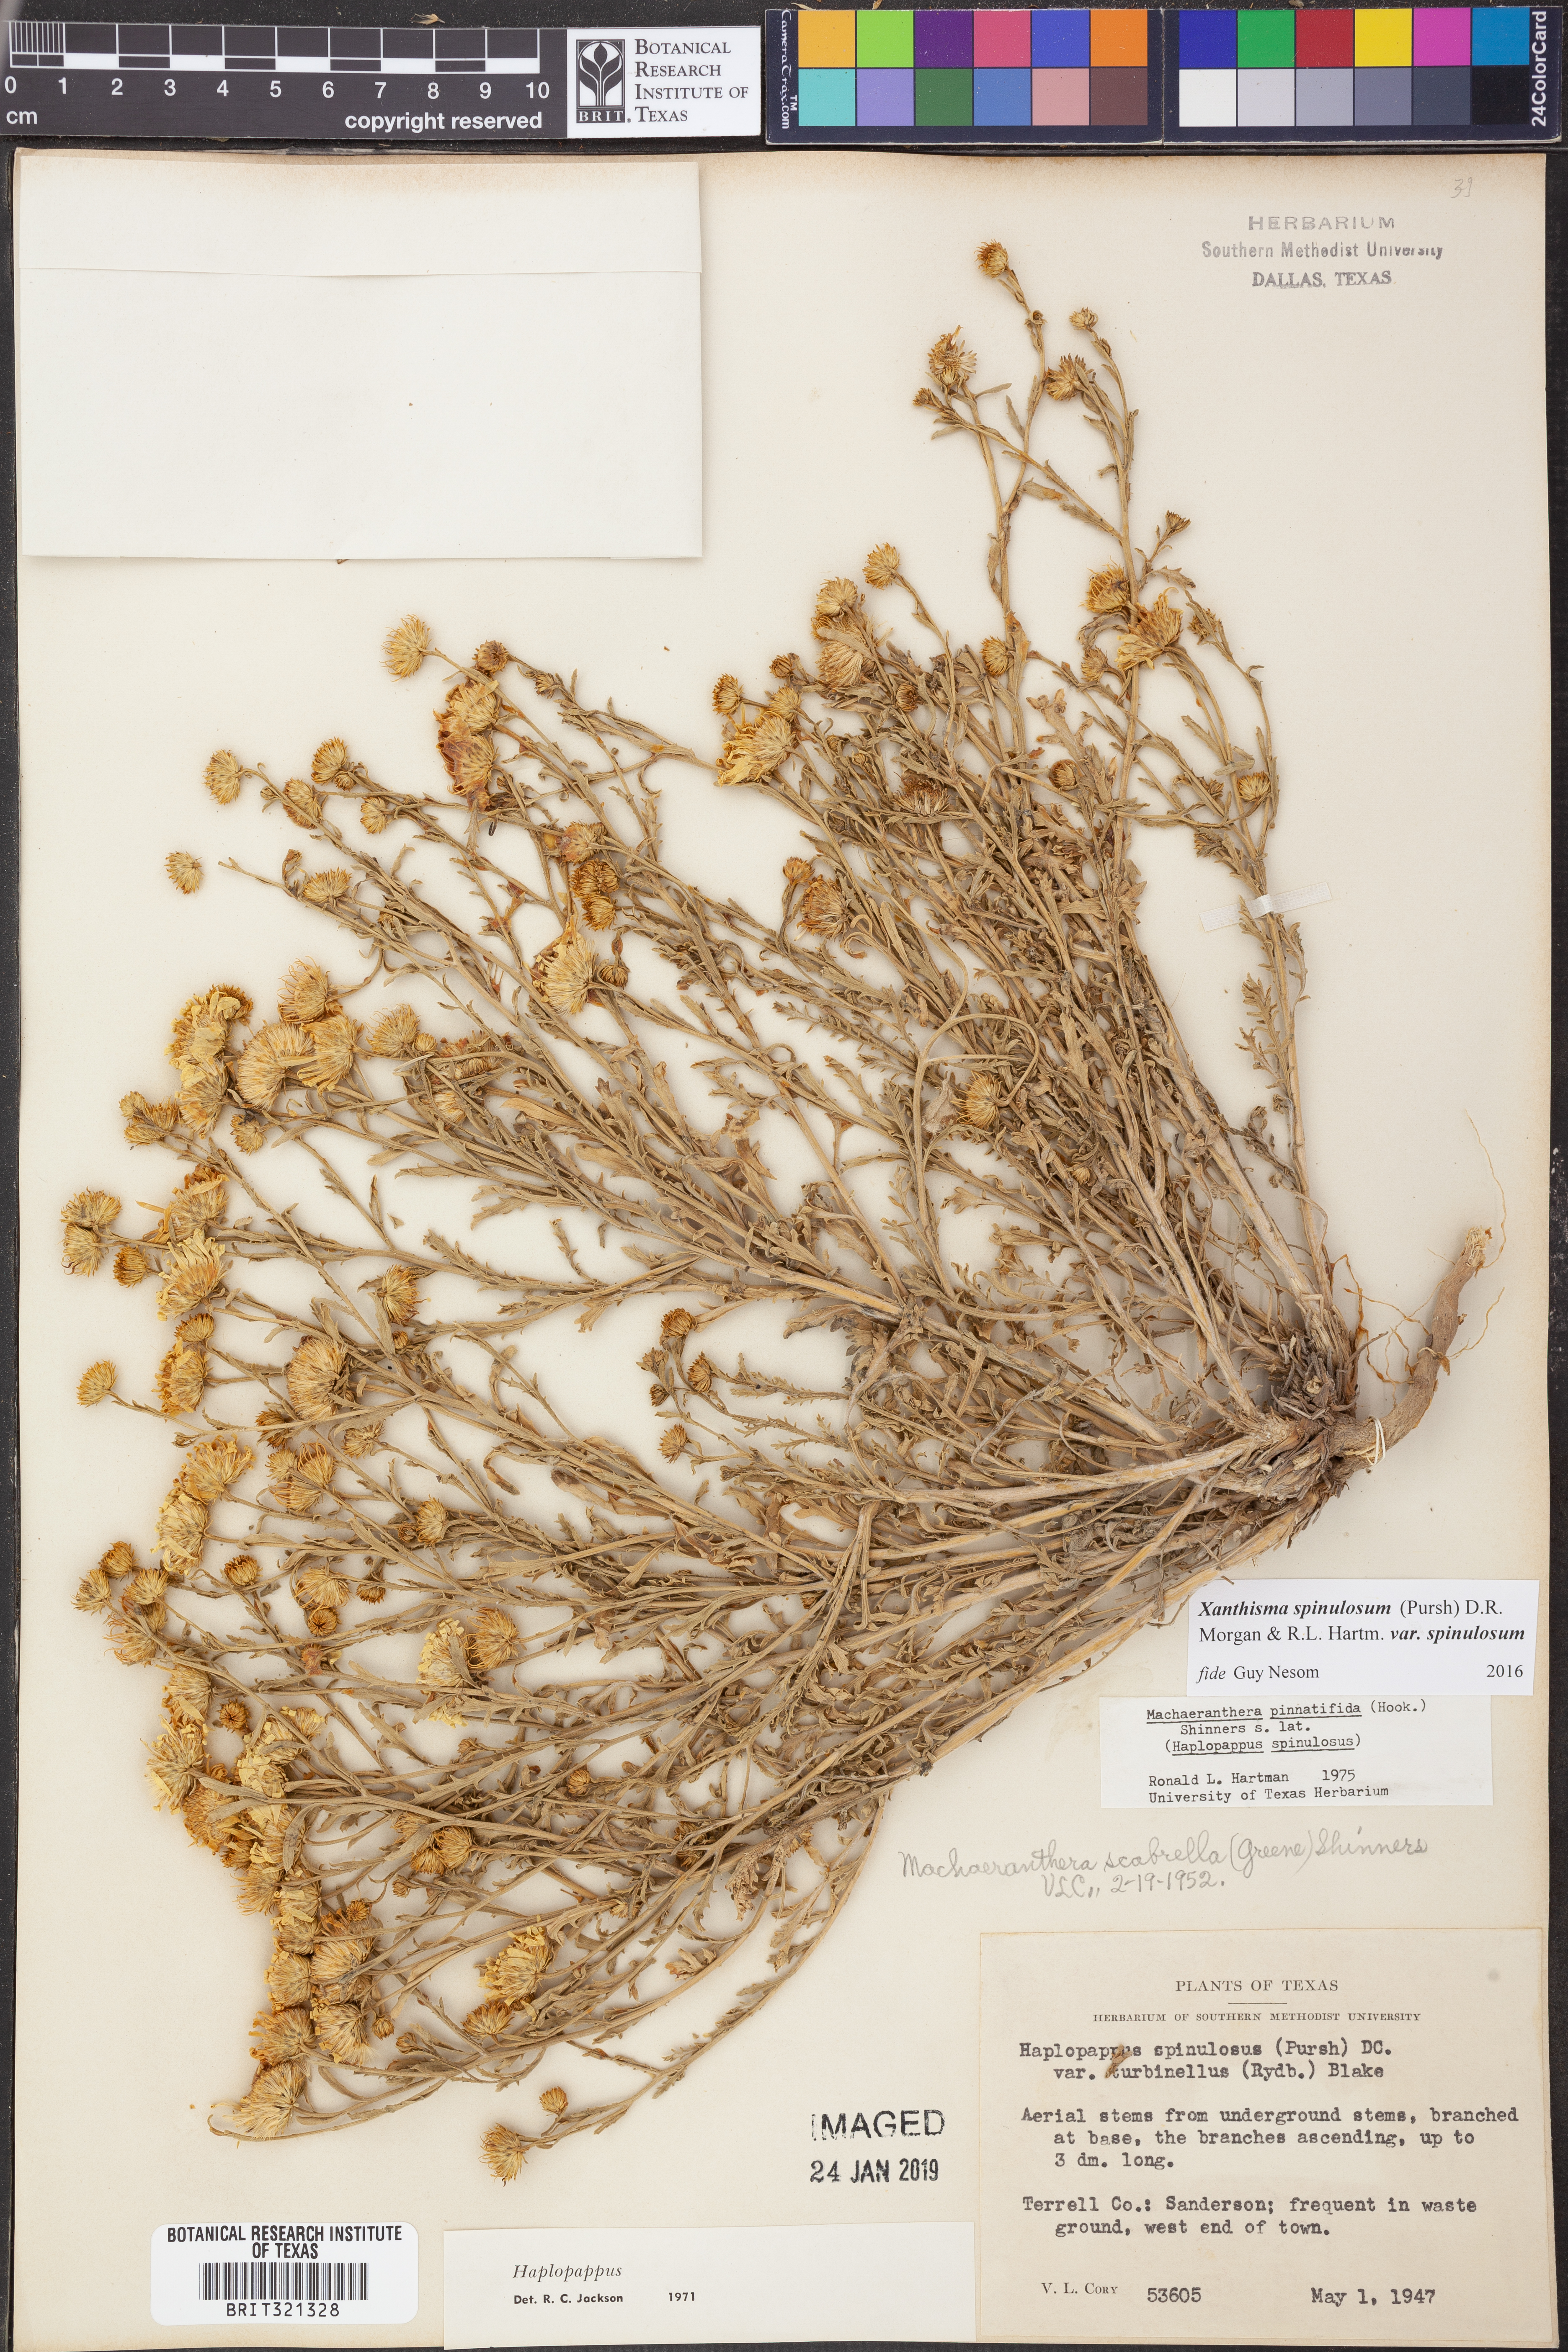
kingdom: Plantae
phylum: Tracheophyta
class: Magnoliopsida
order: Asterales
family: Asteraceae
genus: Xanthisma
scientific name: Xanthisma spinulosum
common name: Spiny goldenweed
